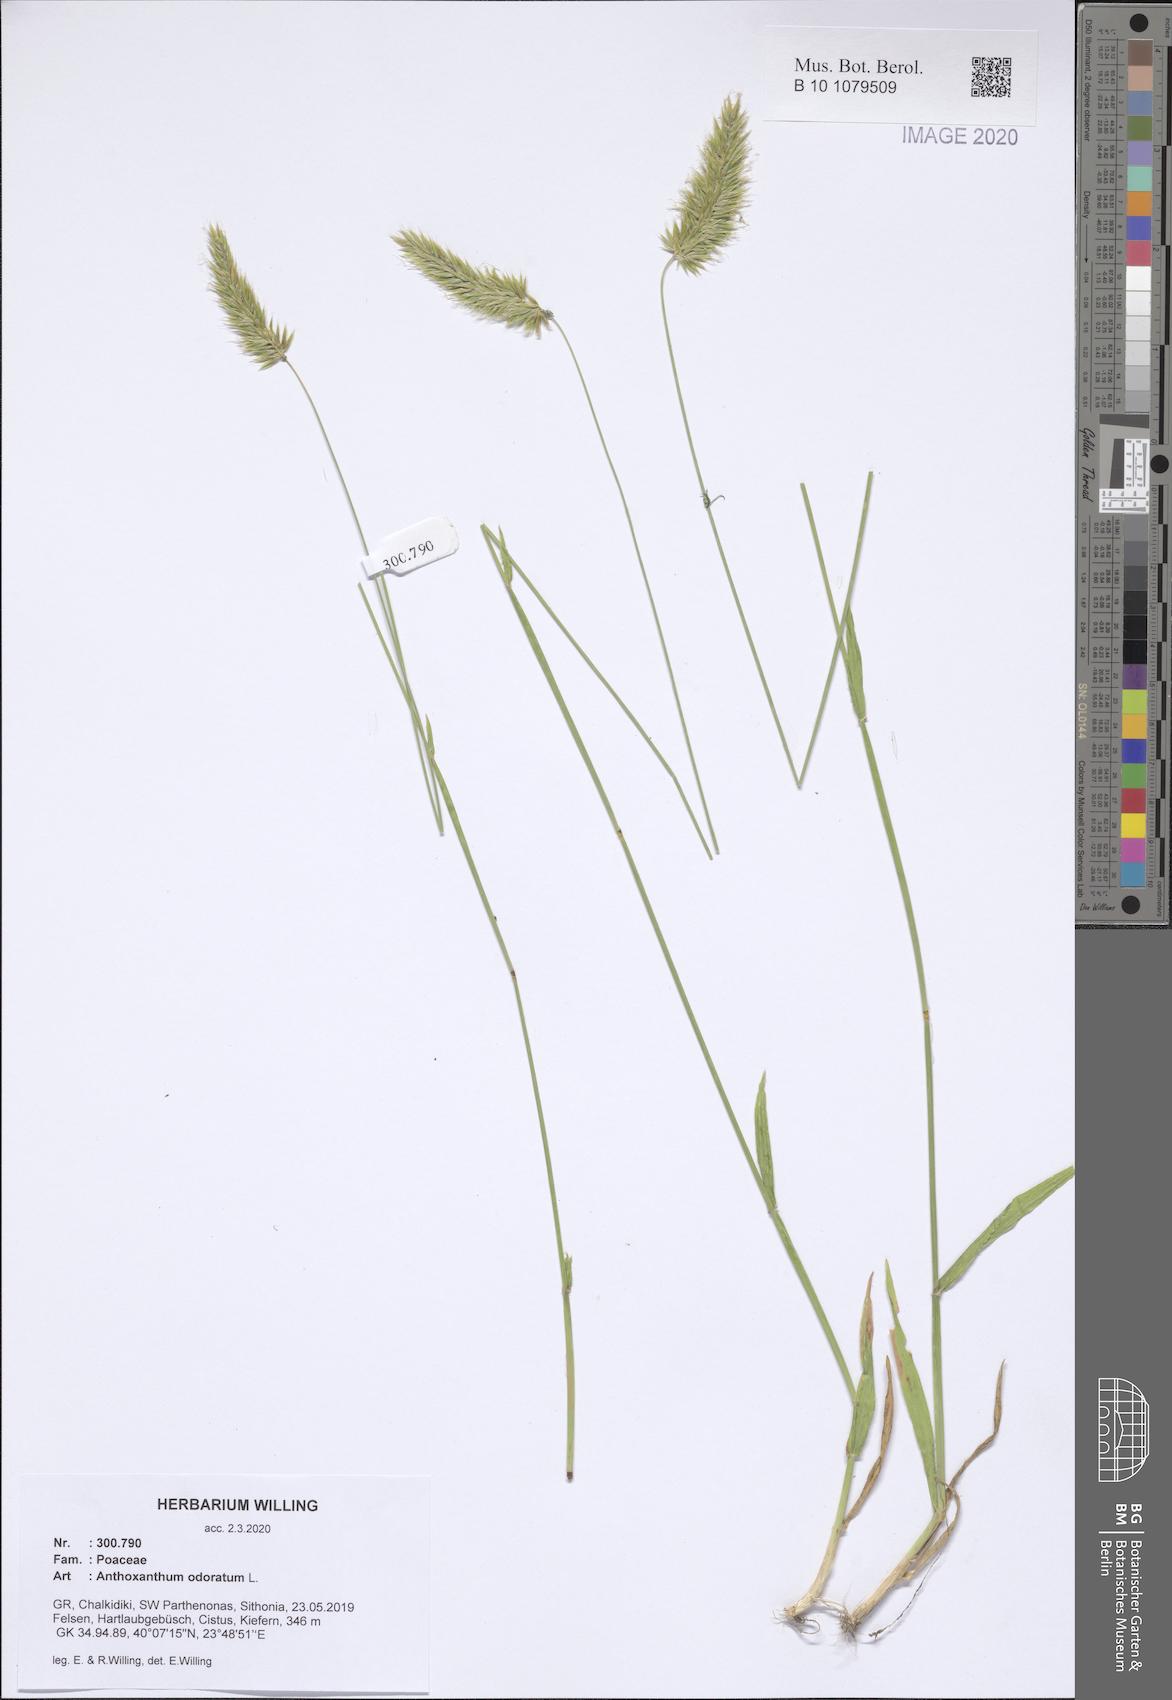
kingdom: Plantae
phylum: Tracheophyta
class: Liliopsida
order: Poales
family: Poaceae
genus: Anthoxanthum
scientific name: Anthoxanthum odoratum
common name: Sweet vernalgrass
